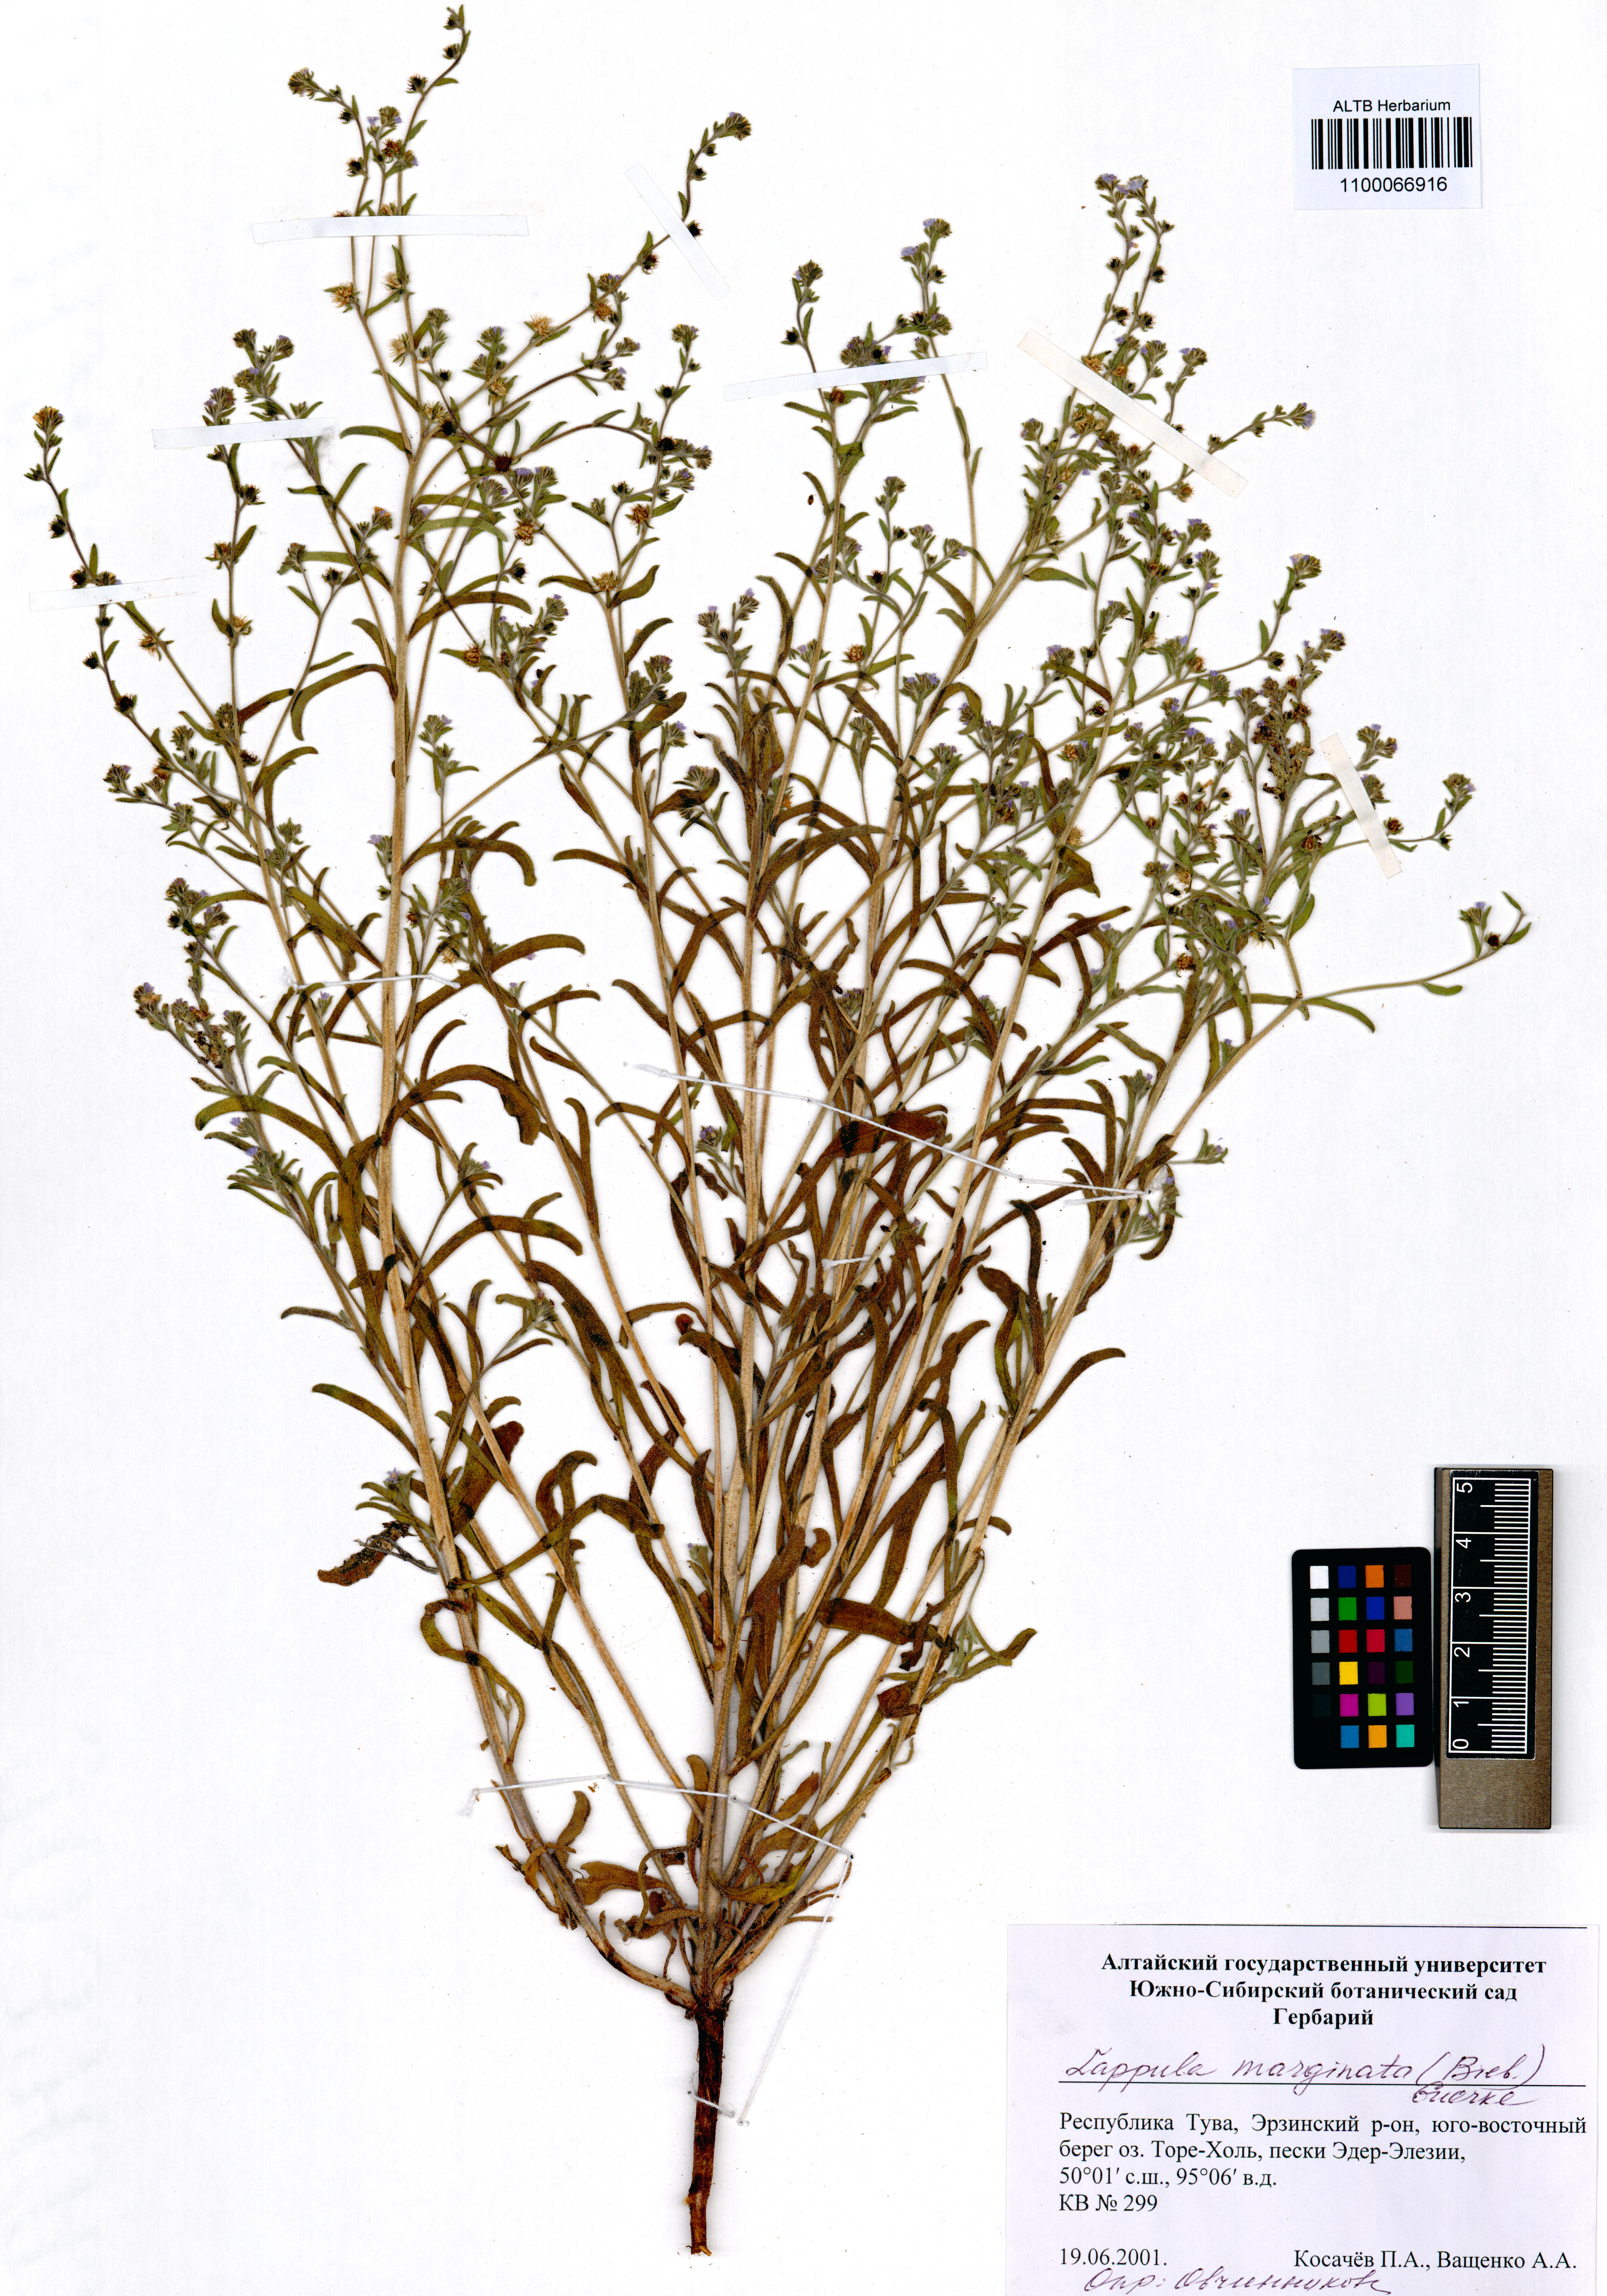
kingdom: Plantae
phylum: Tracheophyta
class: Magnoliopsida
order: Boraginales
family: Boraginaceae
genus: Lappula
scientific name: Lappula marginata
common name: Margined stickseed
